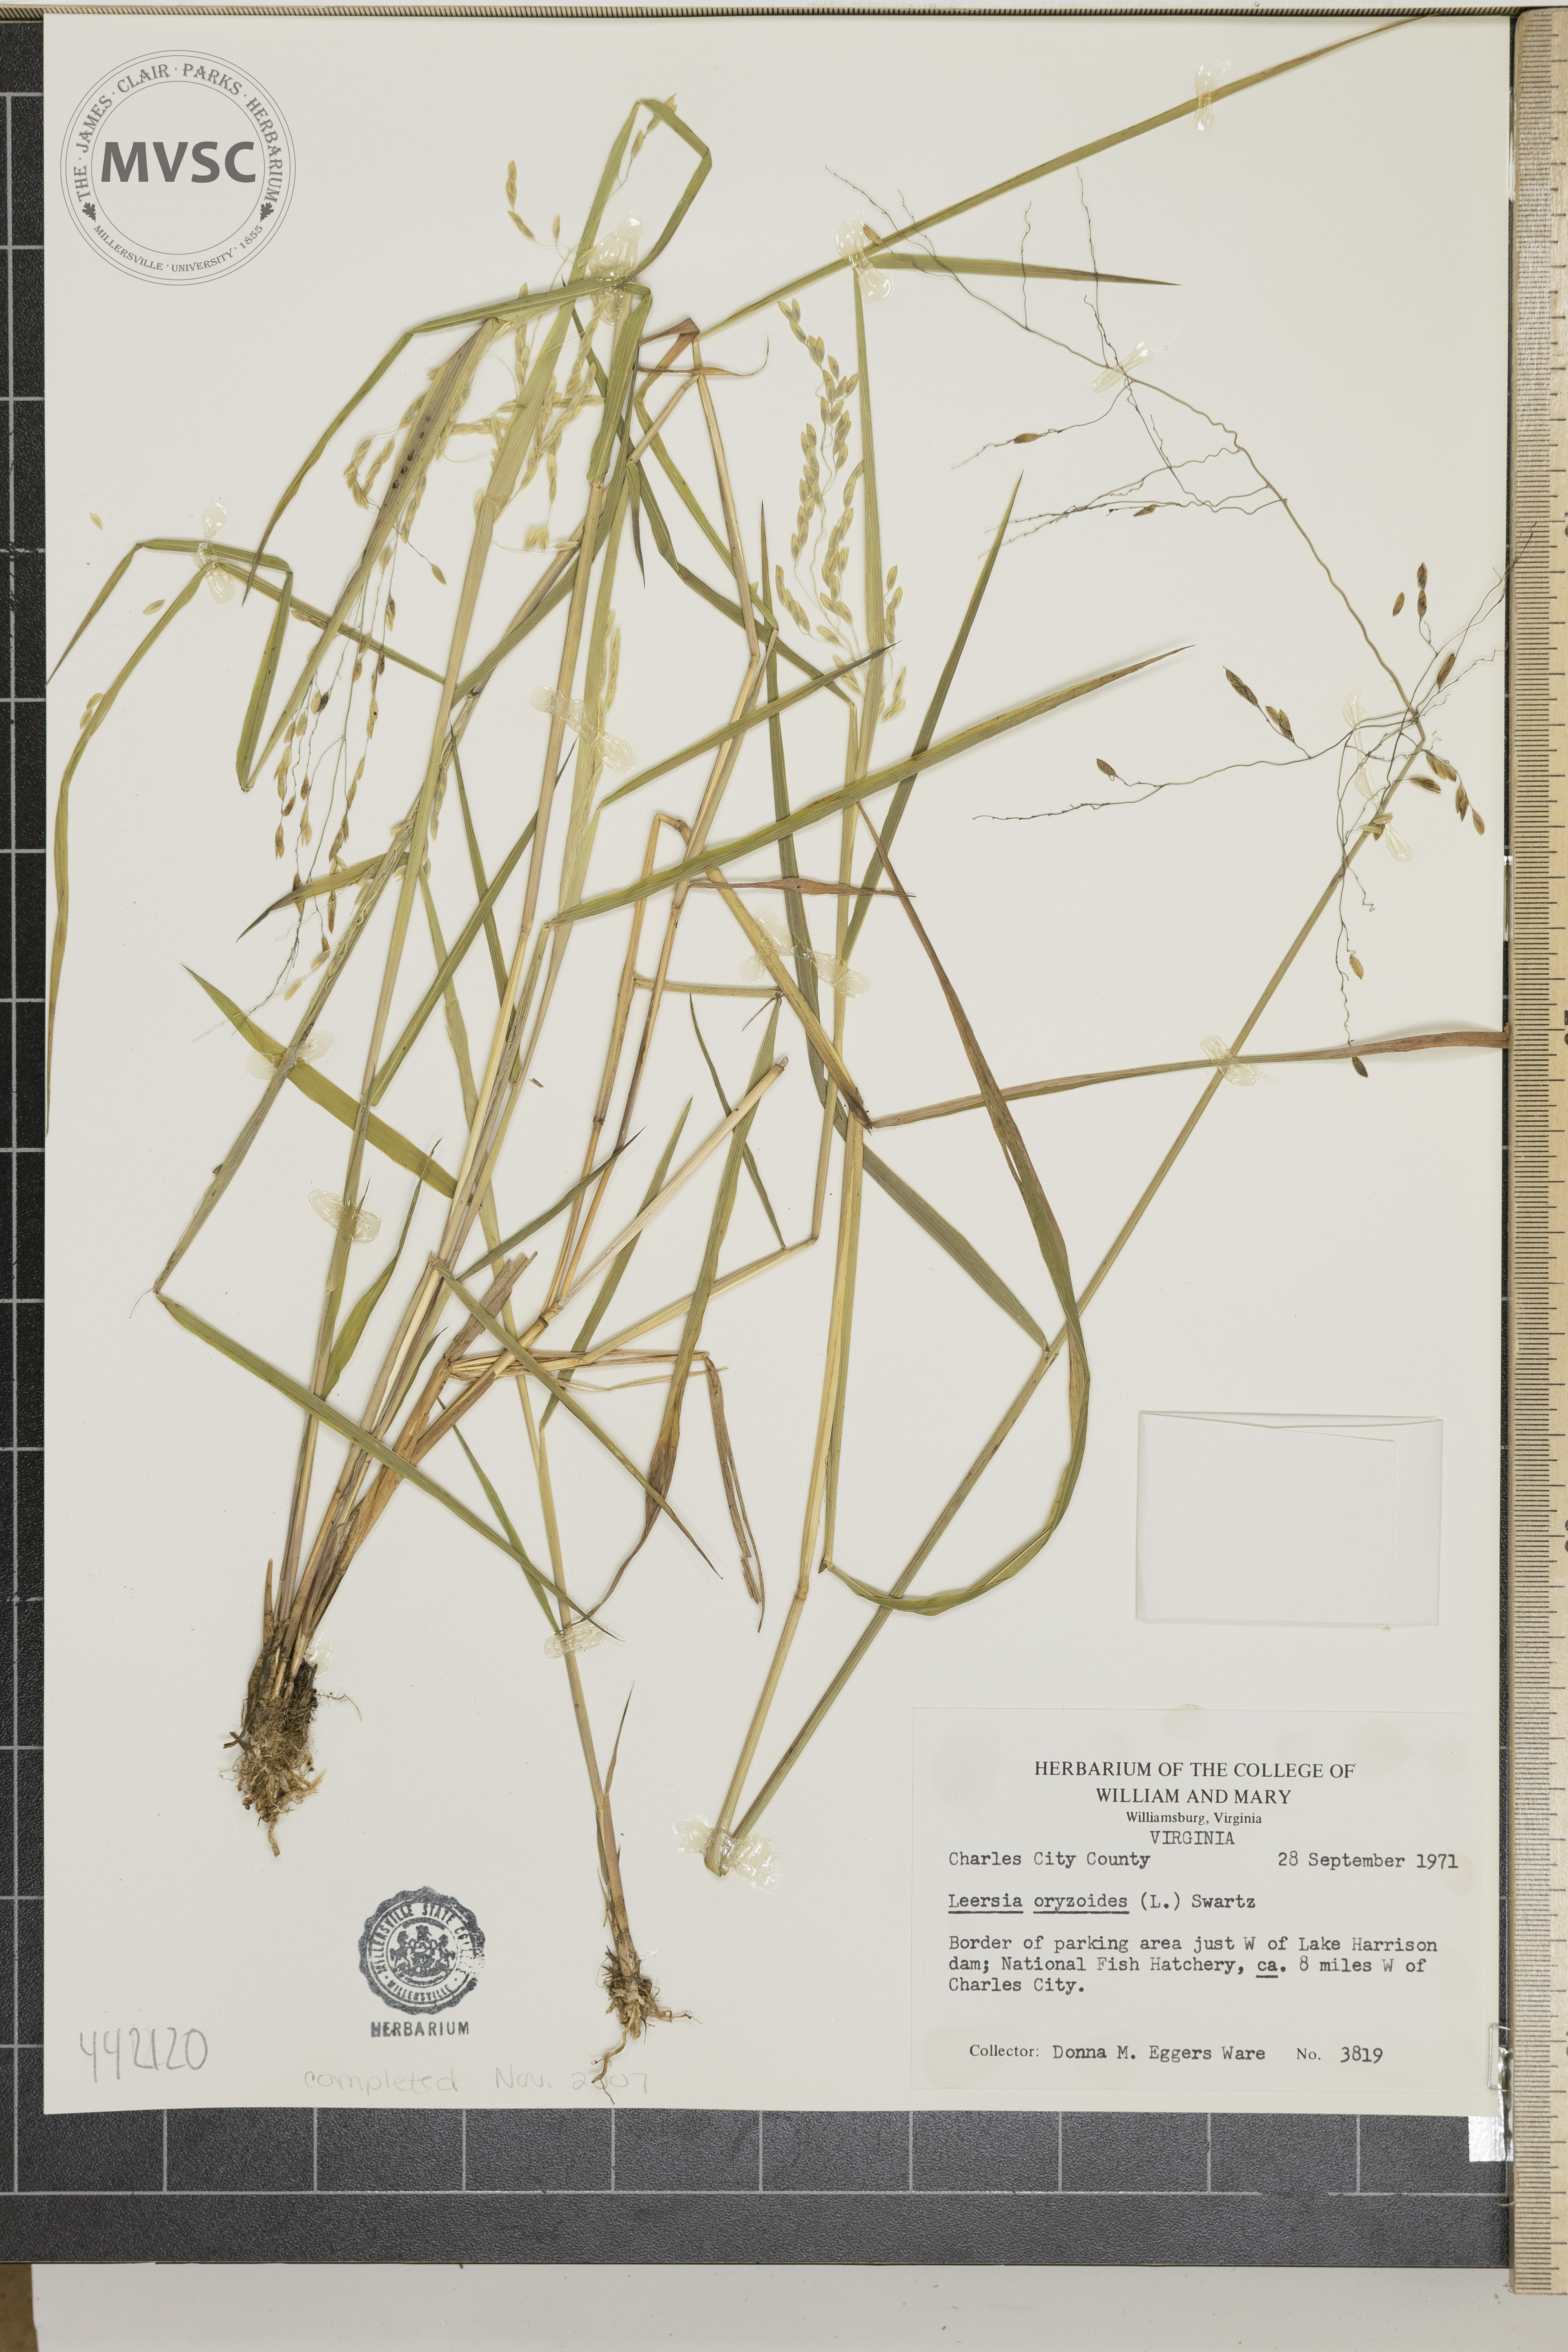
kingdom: Plantae
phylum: Tracheophyta
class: Liliopsida
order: Poales
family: Poaceae
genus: Leersia
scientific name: Leersia oryziodes
